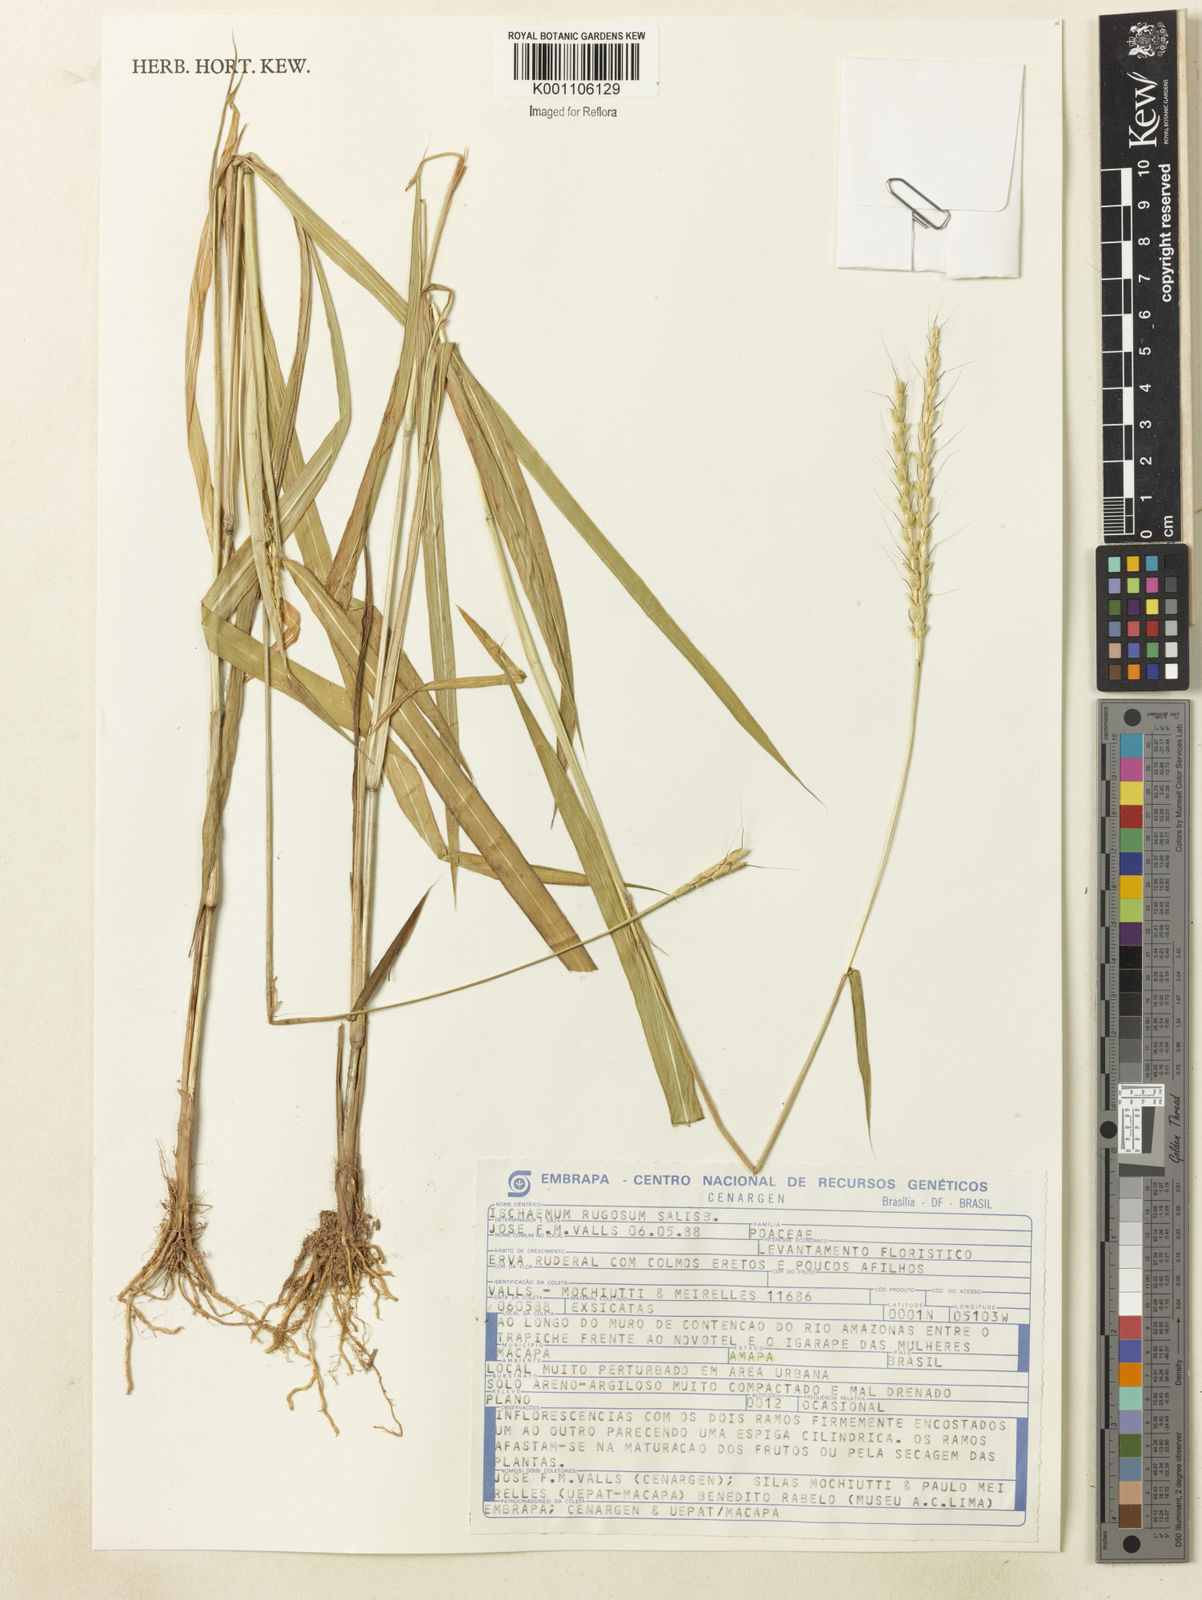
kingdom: Plantae
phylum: Tracheophyta
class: Liliopsida
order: Poales
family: Poaceae
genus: Ischaemum
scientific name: Ischaemum rugosum
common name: Saramatta grass
